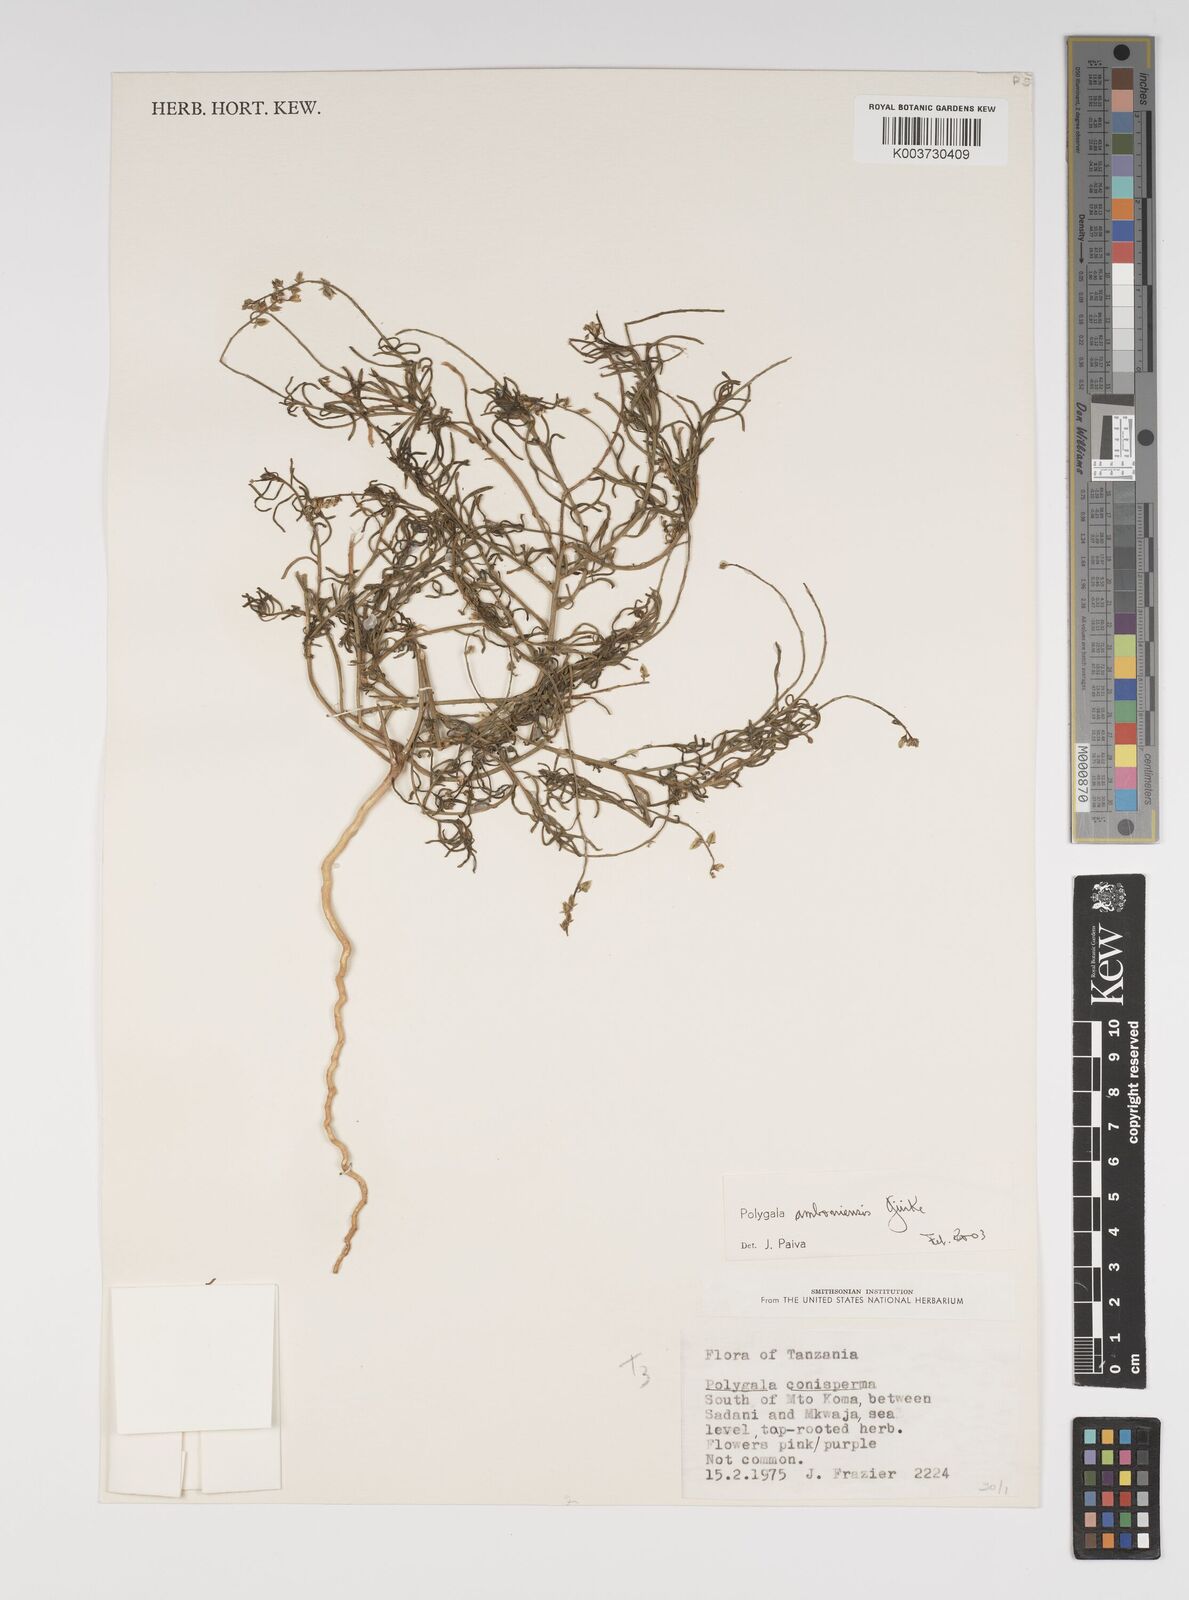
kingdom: Plantae
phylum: Tracheophyta
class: Magnoliopsida
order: Fabales
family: Polygalaceae
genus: Polygala
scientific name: Polygala amboniensis
